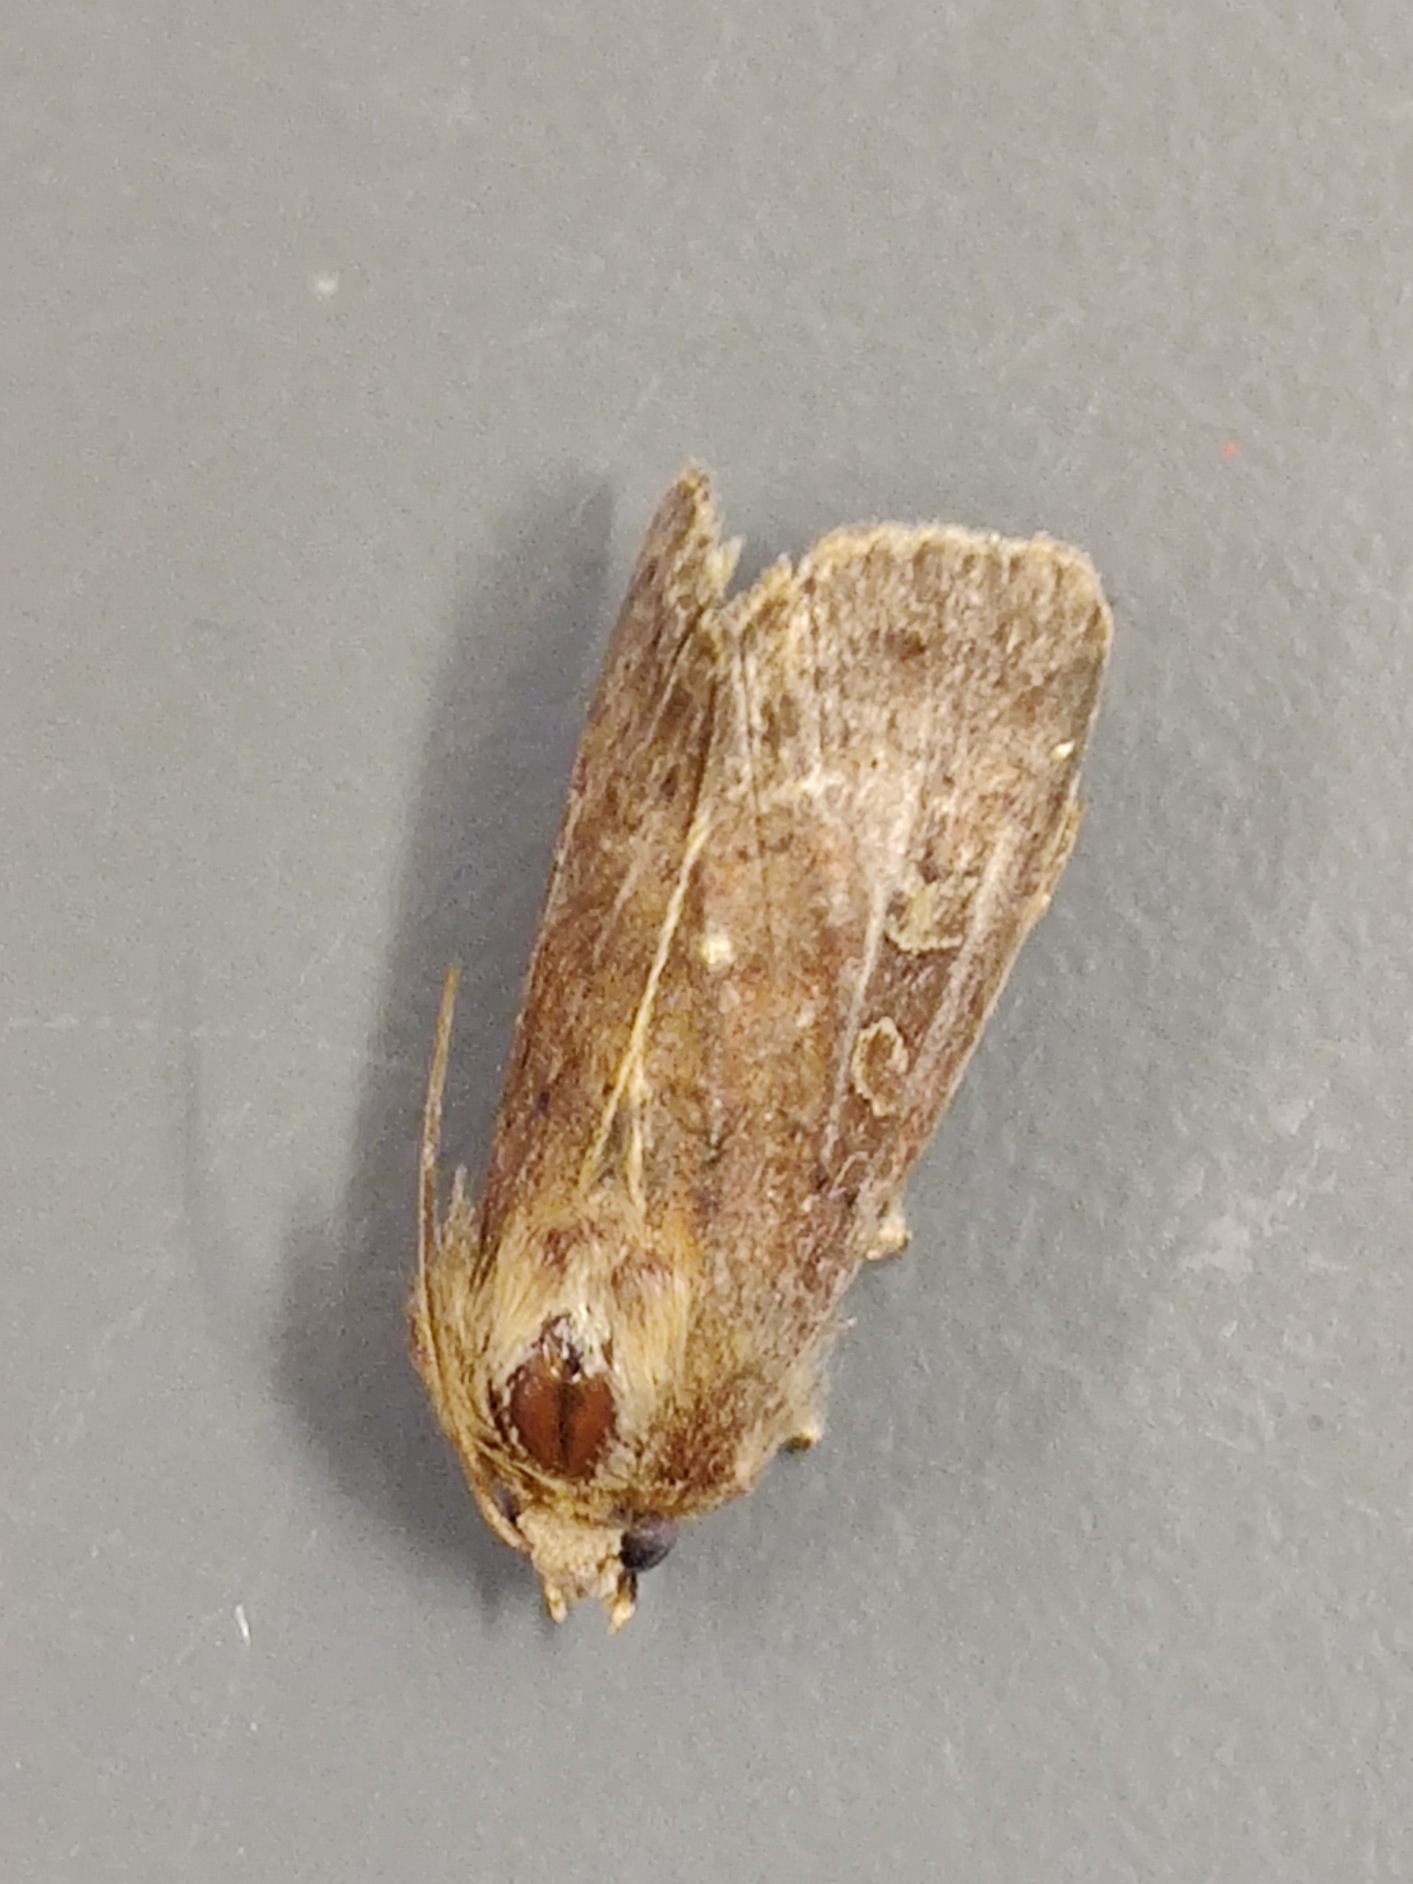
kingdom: Animalia
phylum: Arthropoda
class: Insecta
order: Lepidoptera
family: Noctuidae
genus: Xestia
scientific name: Xestia xanthographa
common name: Gulmærket glansugle
